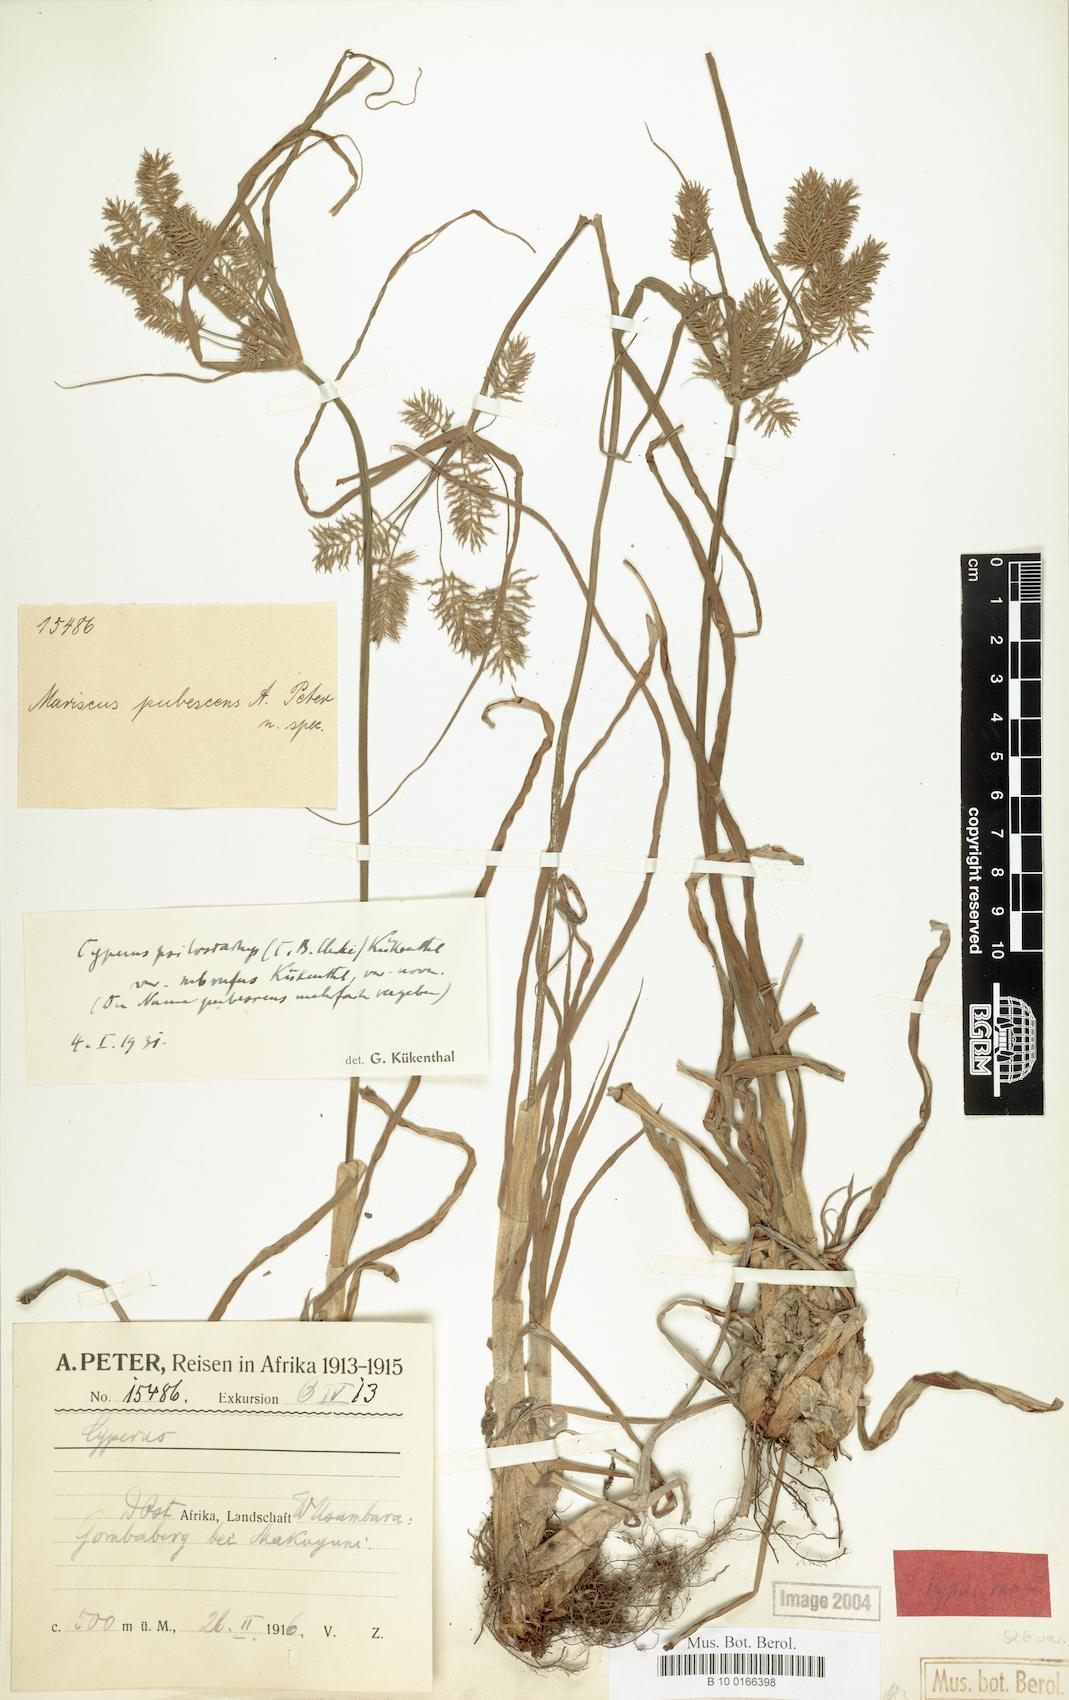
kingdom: Plantae
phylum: Tracheophyta
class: Liliopsida
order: Poales
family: Cyperaceae
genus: Cyperus
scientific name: Cyperus trigonellus
